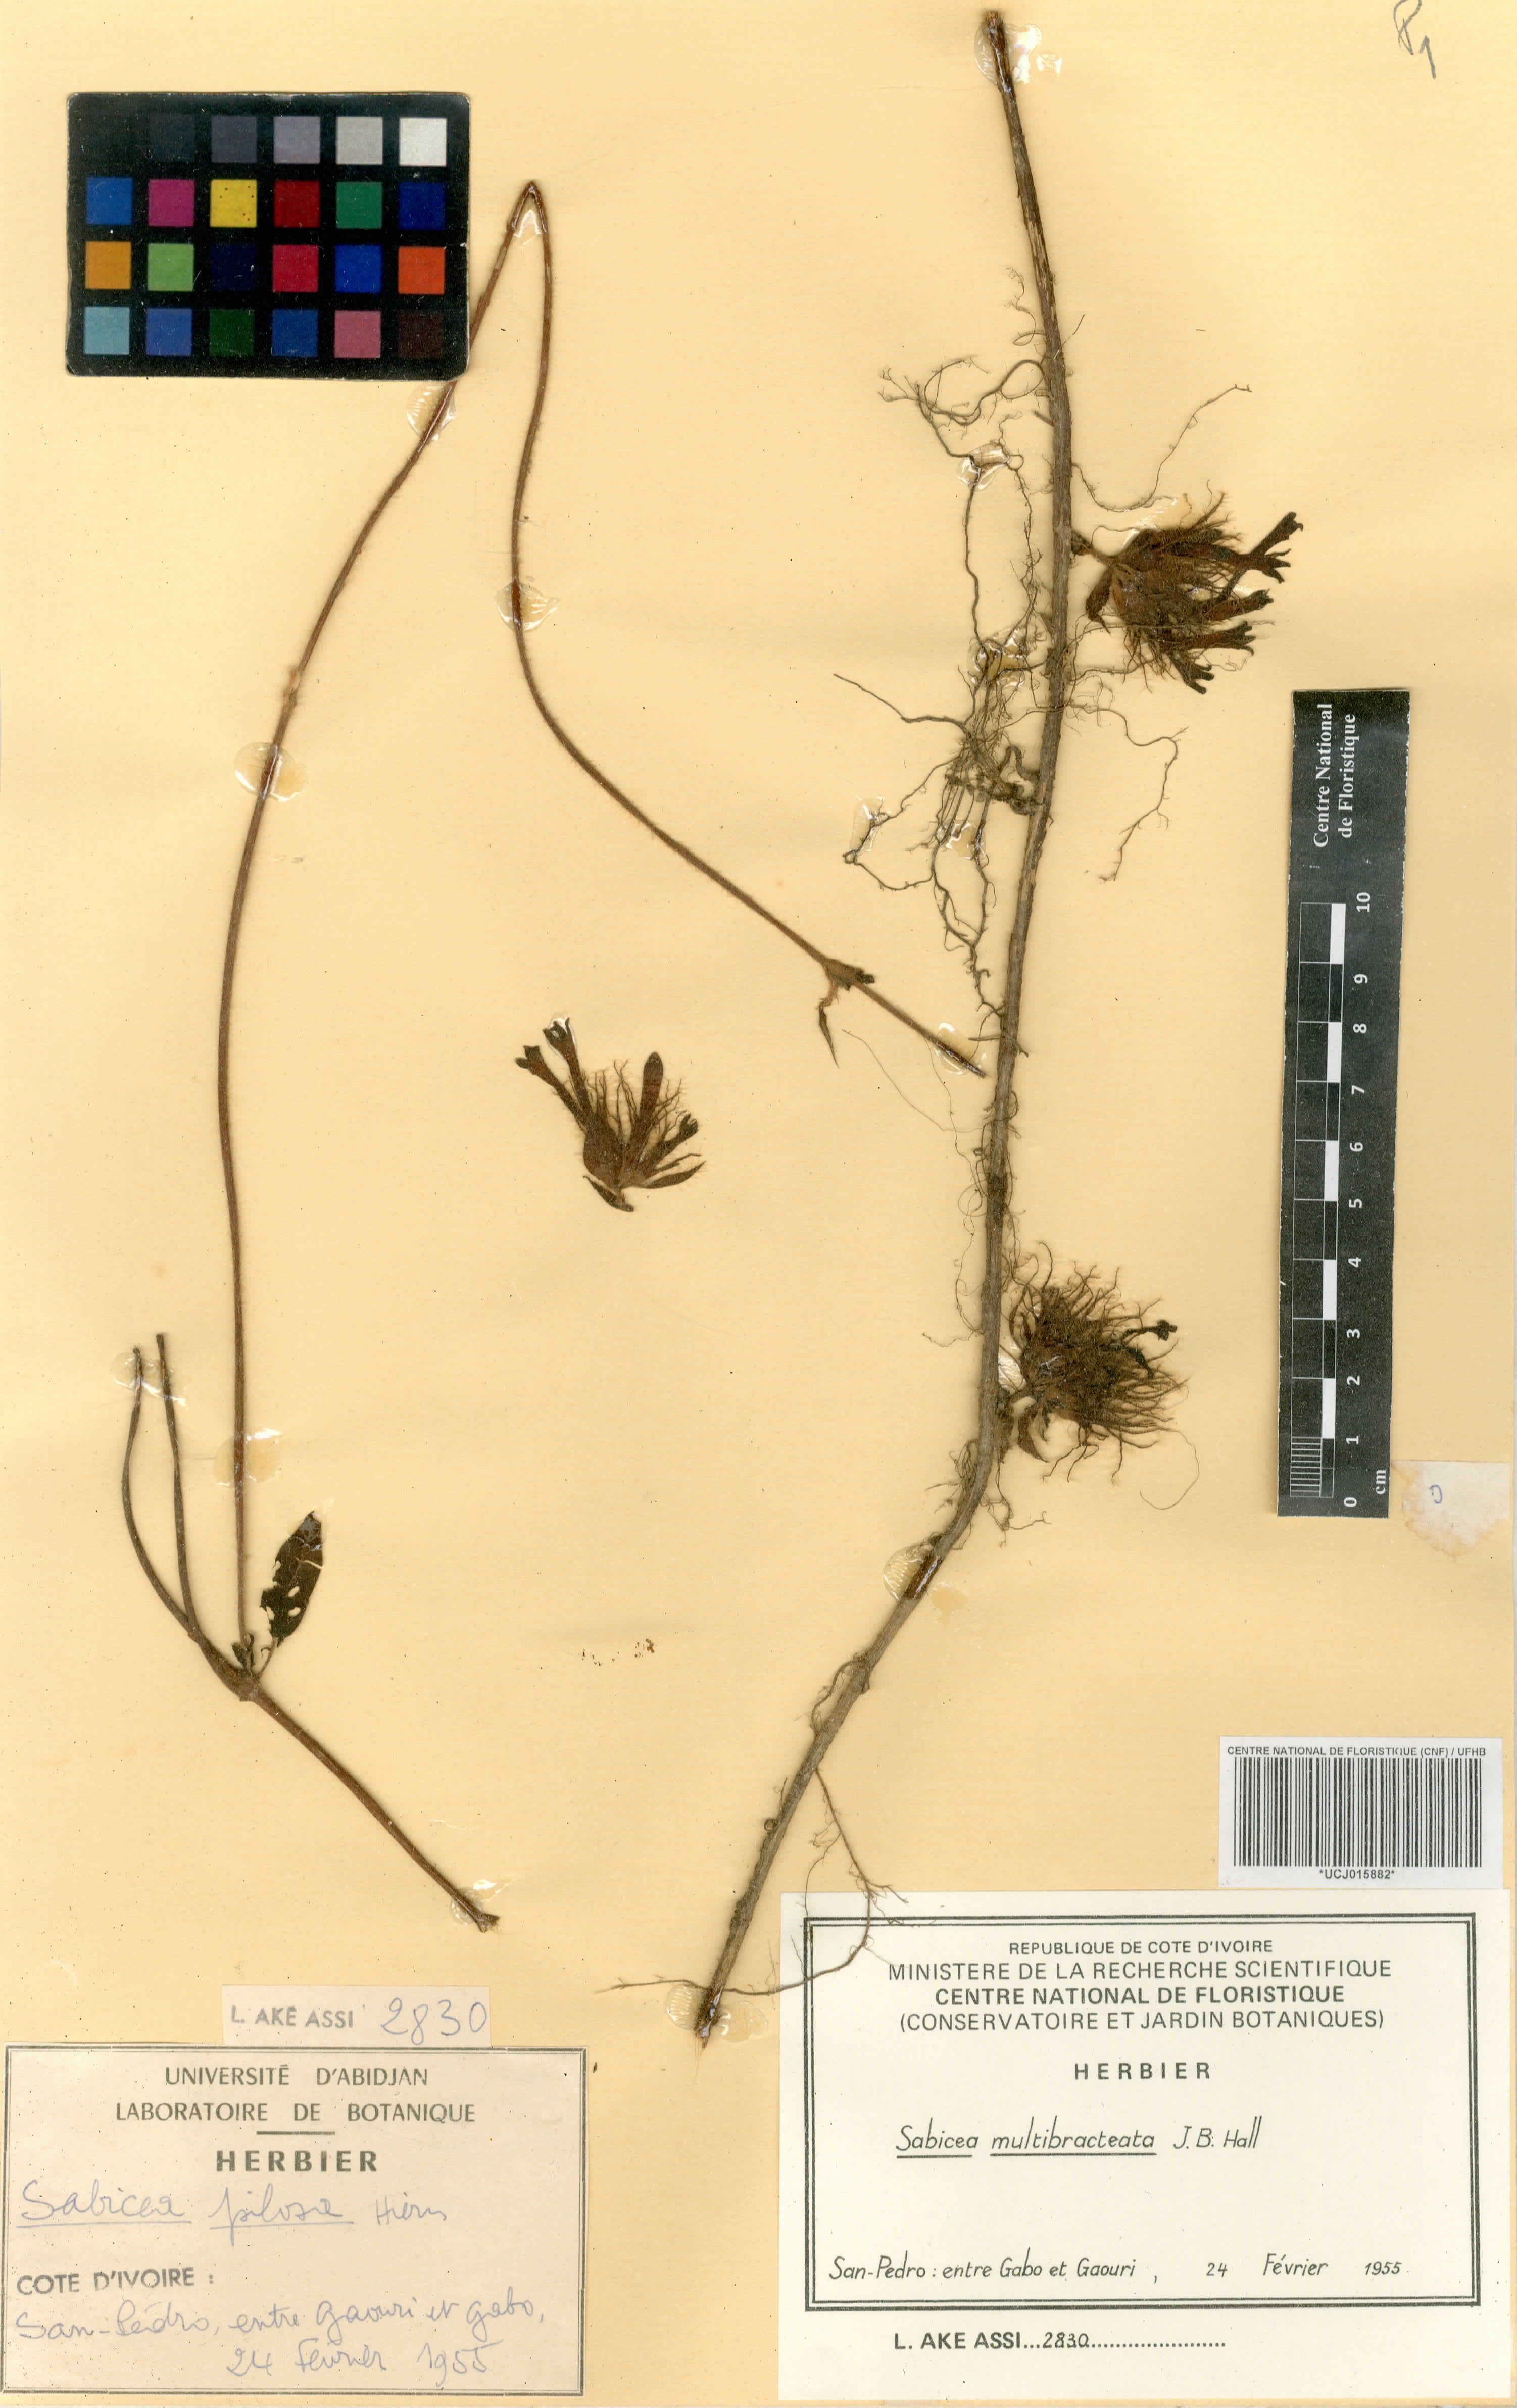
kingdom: Plantae
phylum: Tracheophyta
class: Magnoliopsida
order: Gentianales
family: Rubiaceae
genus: Sabicea
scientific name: Sabicea multibracteata
